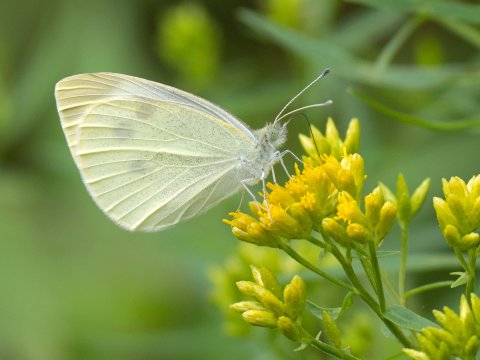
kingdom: Animalia
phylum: Arthropoda
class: Insecta
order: Lepidoptera
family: Pieridae
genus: Pieris
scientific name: Pieris rapae
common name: Cabbage White
